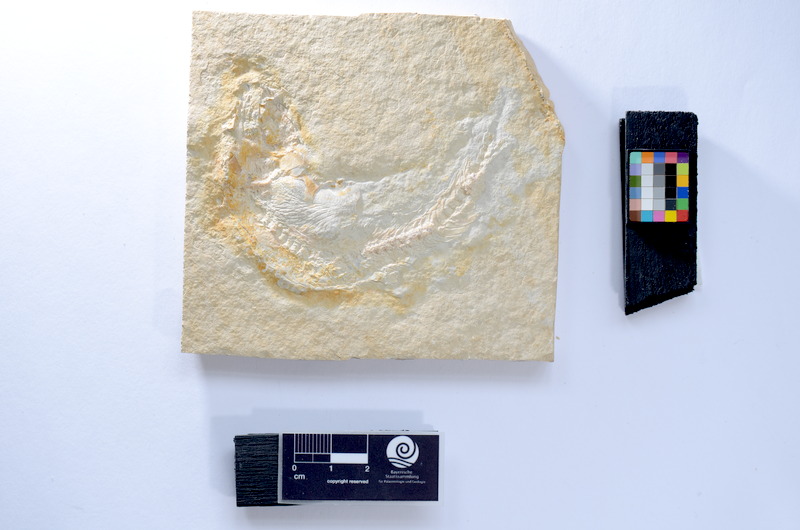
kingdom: Animalia
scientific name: Animalia
